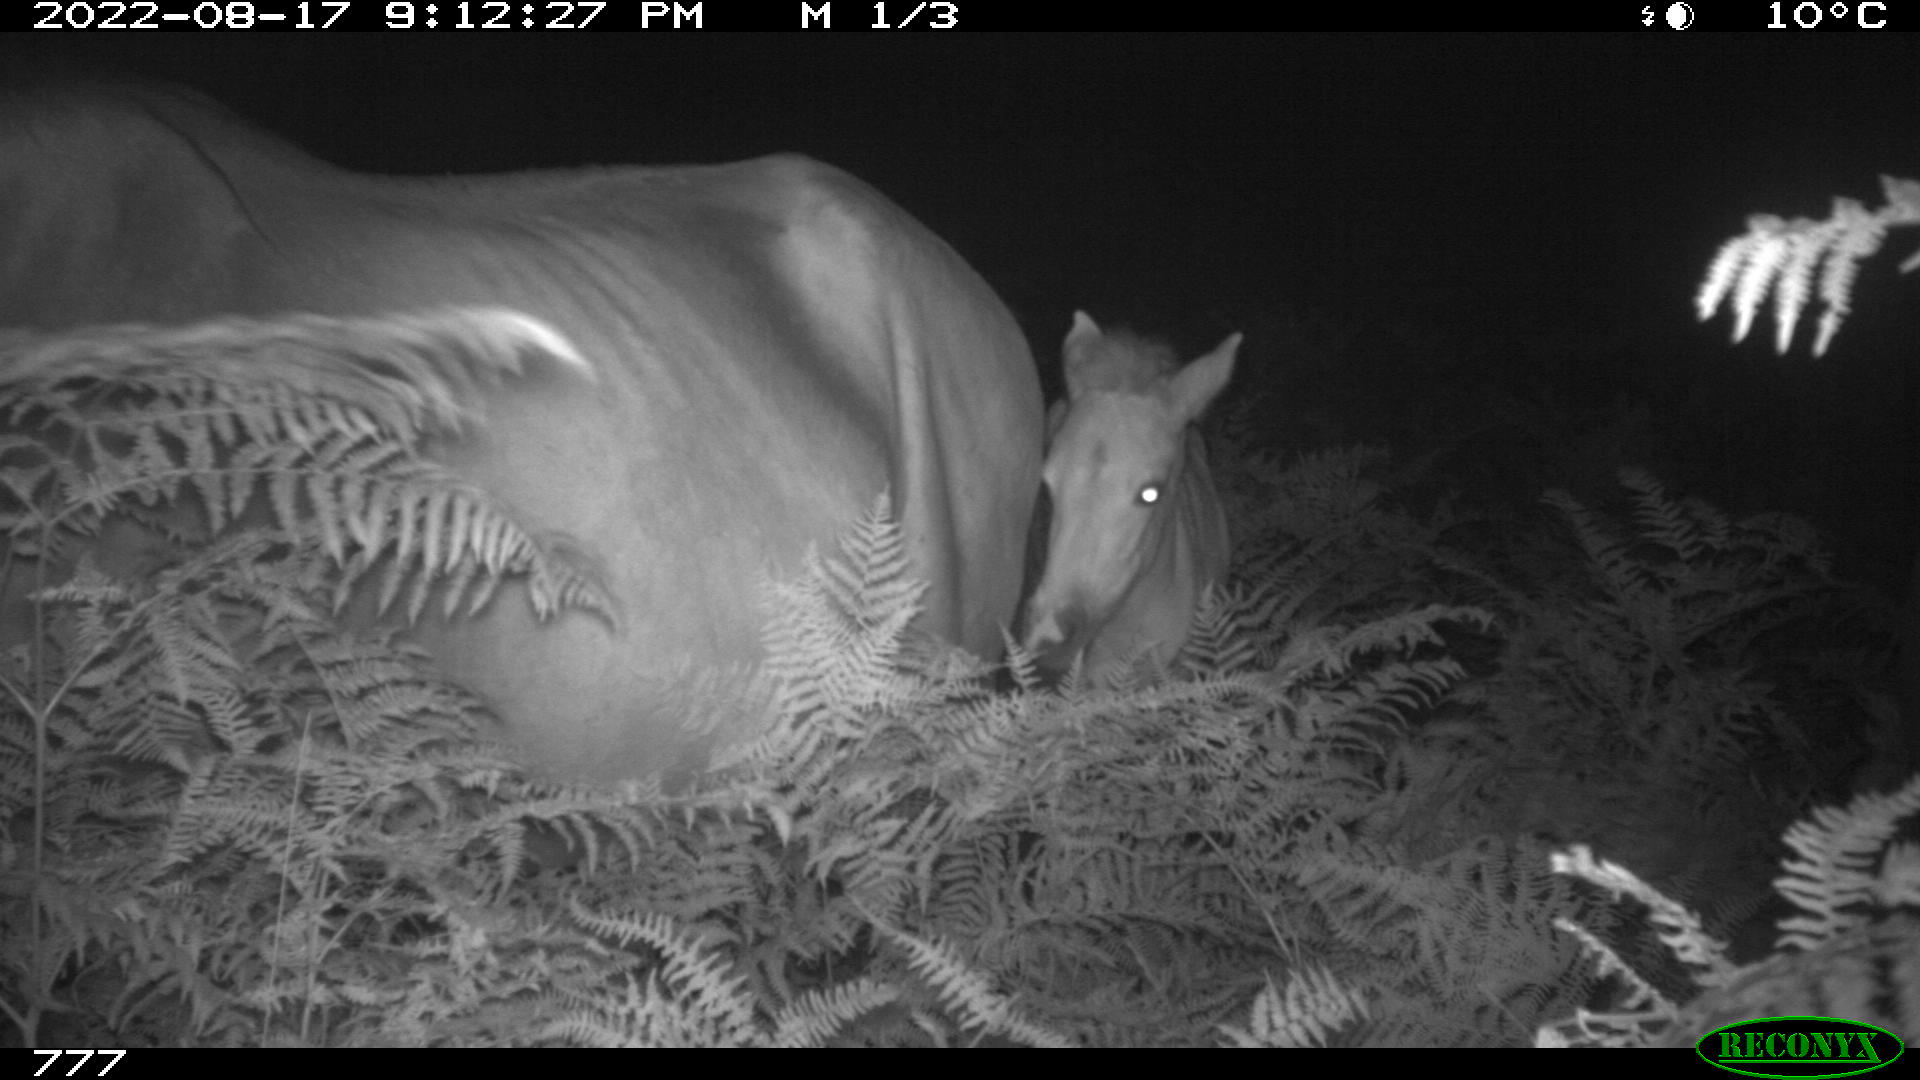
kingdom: Animalia
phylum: Chordata
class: Mammalia
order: Perissodactyla
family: Equidae
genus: Equus
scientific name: Equus caballus
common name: Horse
